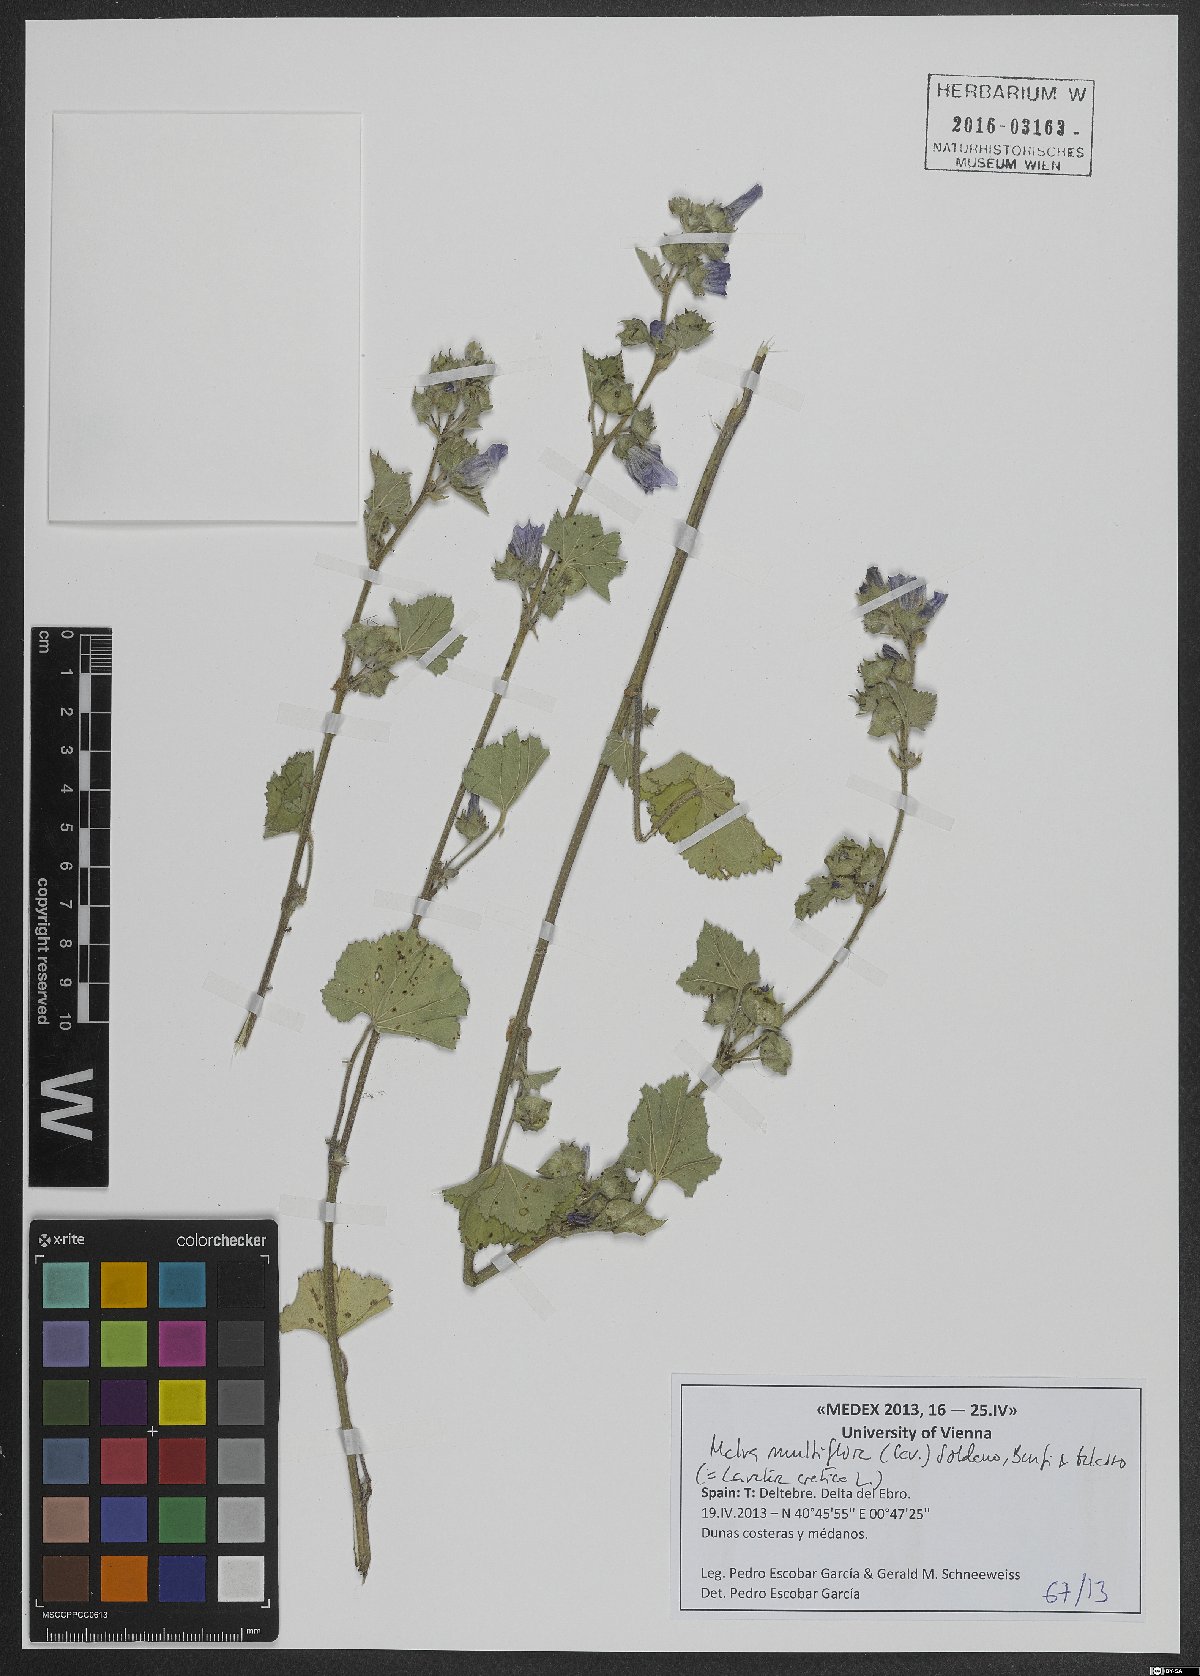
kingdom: Plantae
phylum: Tracheophyta
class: Magnoliopsida
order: Malvales
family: Malvaceae
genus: Malva
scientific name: Malva multiflora
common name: Cheeseweed
